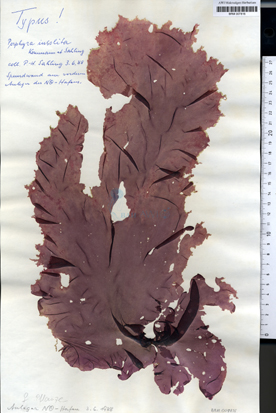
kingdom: Plantae
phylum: Rhodophyta
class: Bangiophyceae
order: Bangiales
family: Bangiaceae
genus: Porphyra
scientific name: Porphyra umbilicalis
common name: Purple laver
